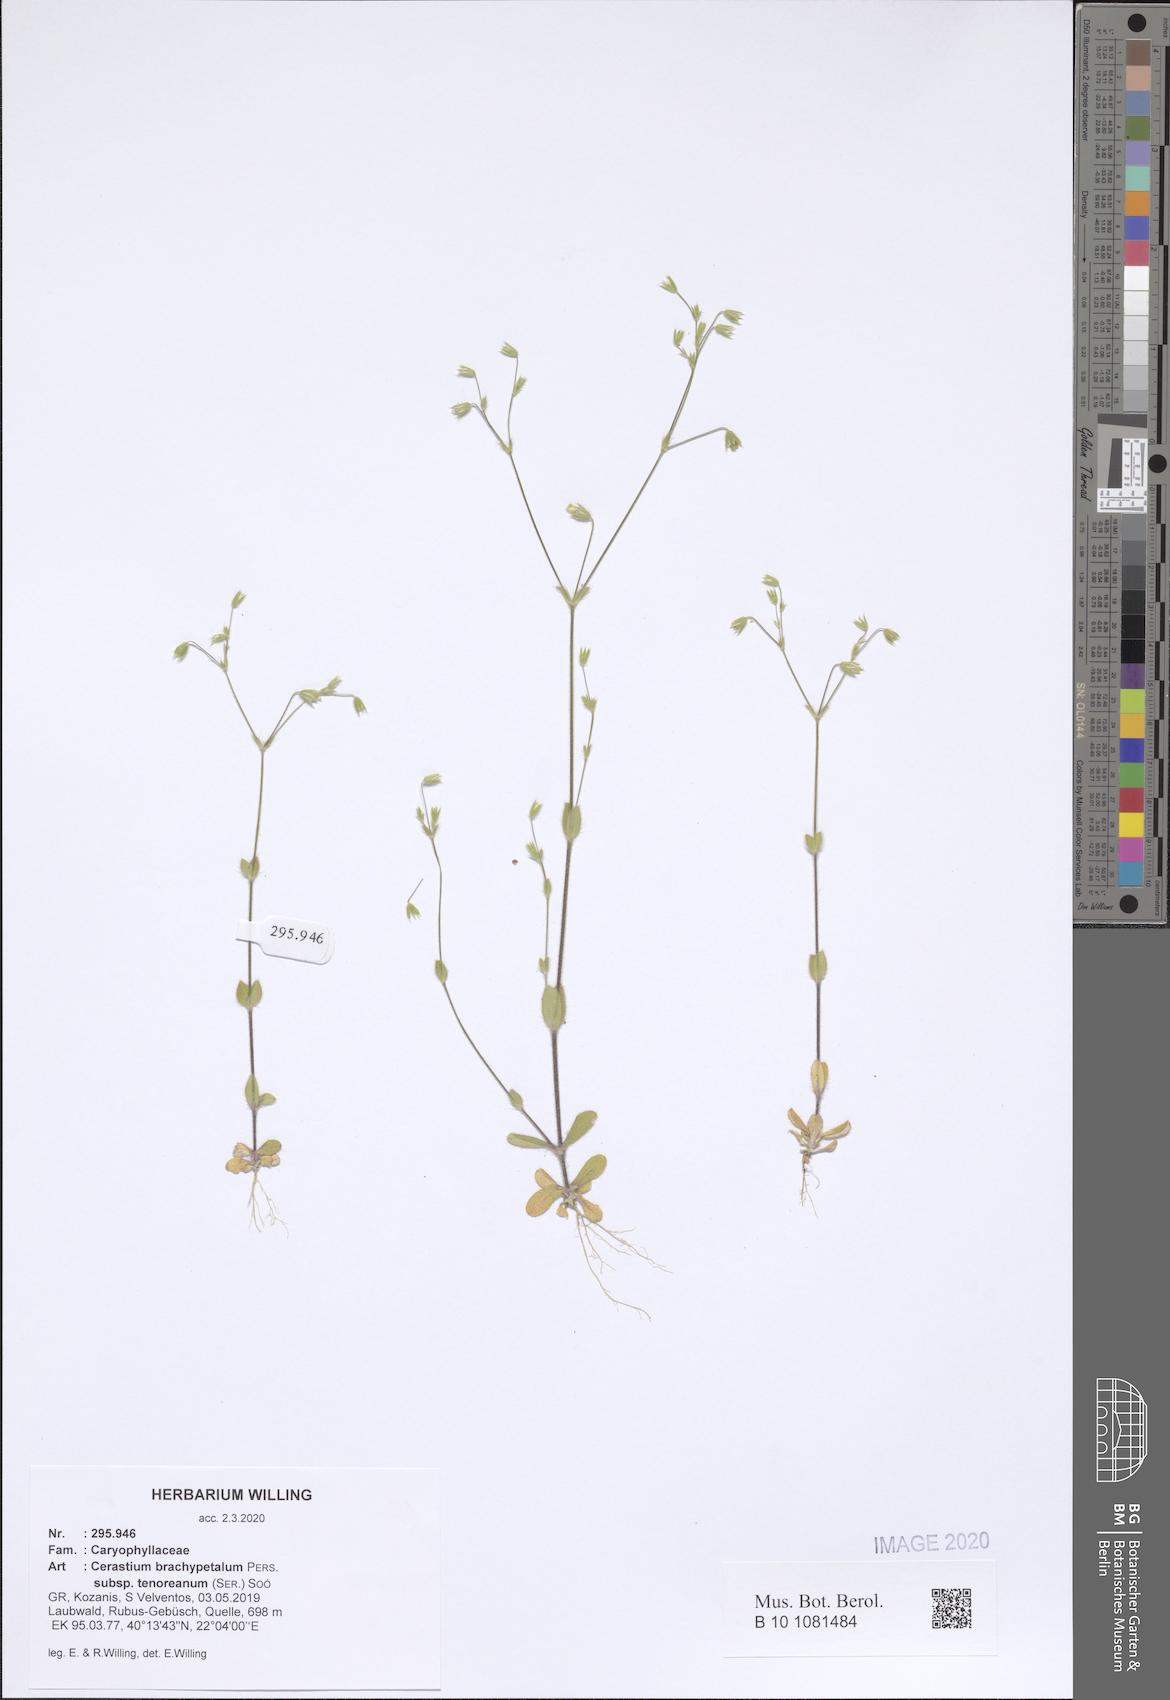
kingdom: Plantae
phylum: Tracheophyta
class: Magnoliopsida
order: Caryophyllales
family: Caryophyllaceae
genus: Cerastium
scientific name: Cerastium tenoreanum
